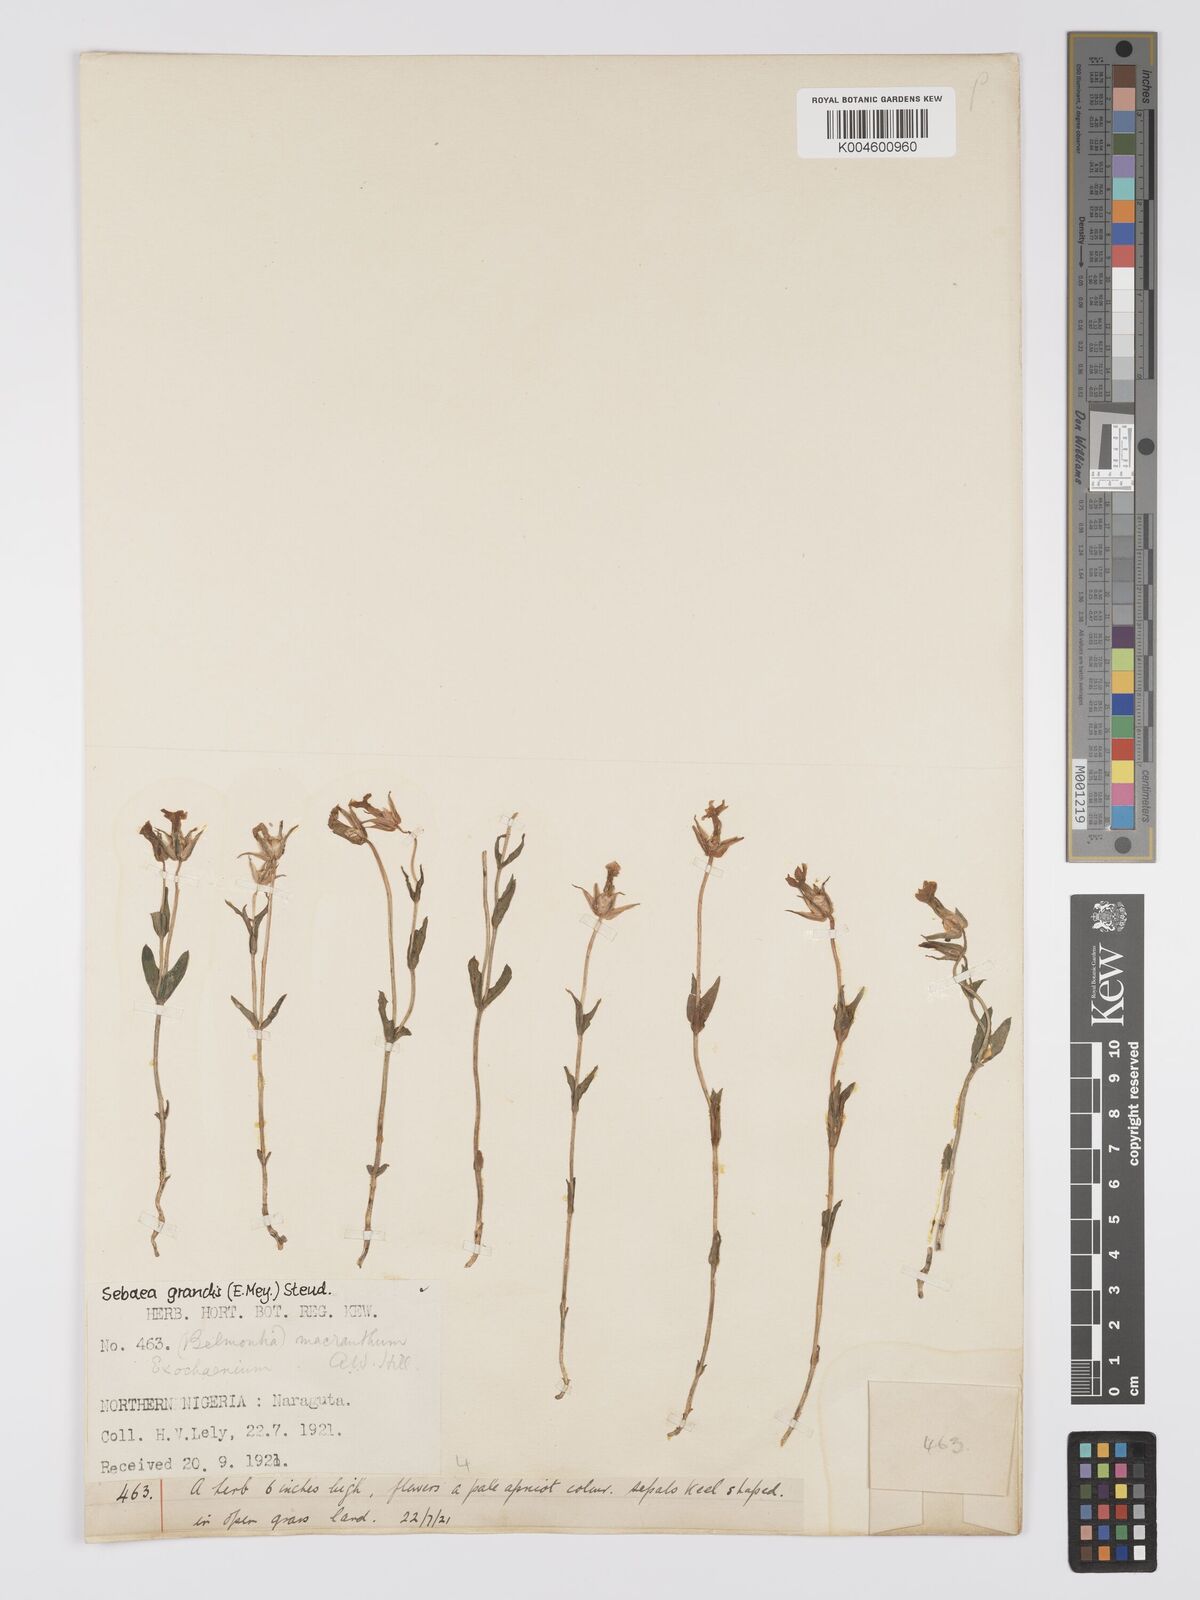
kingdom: Plantae
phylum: Tracheophyta
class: Magnoliopsida
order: Gentianales
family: Gentianaceae
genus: Exochaenium
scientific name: Exochaenium grande
